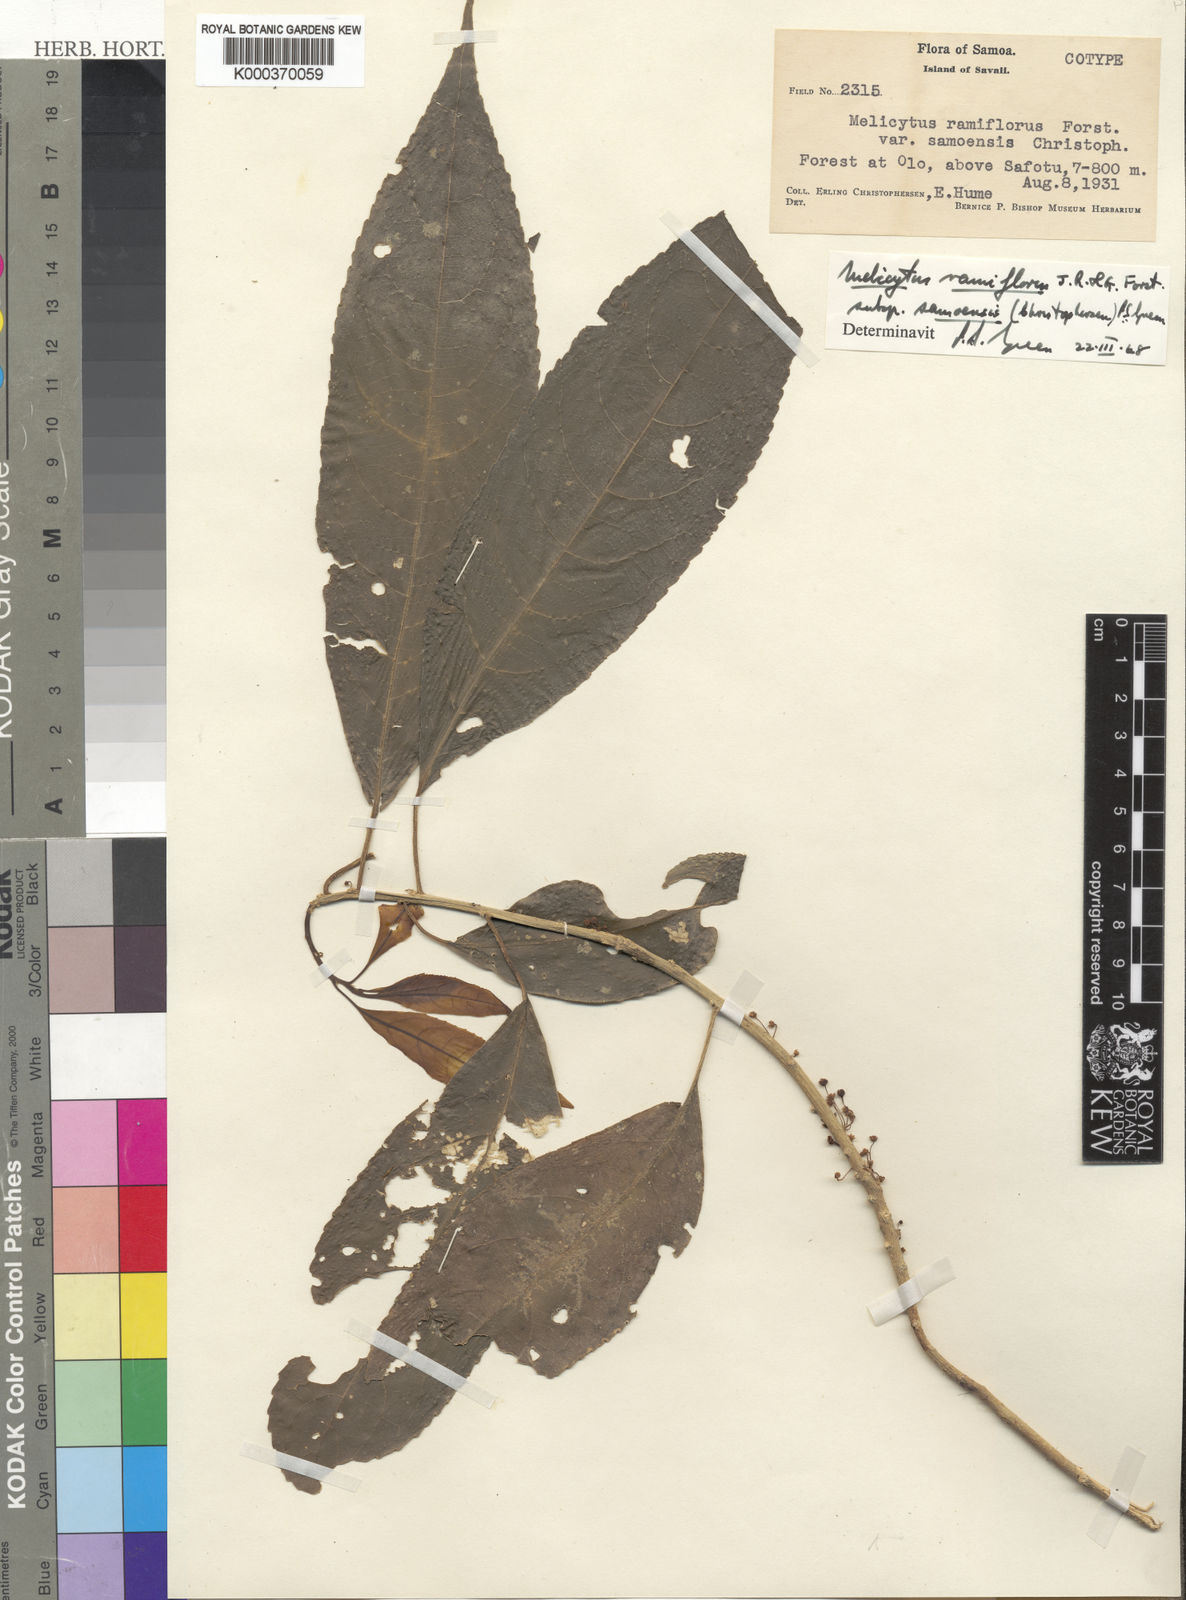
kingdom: Plantae
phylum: Tracheophyta
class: Magnoliopsida
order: Malpighiales
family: Violaceae
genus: Melicytus
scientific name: Melicytus ramiflorus
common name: Mahoe
